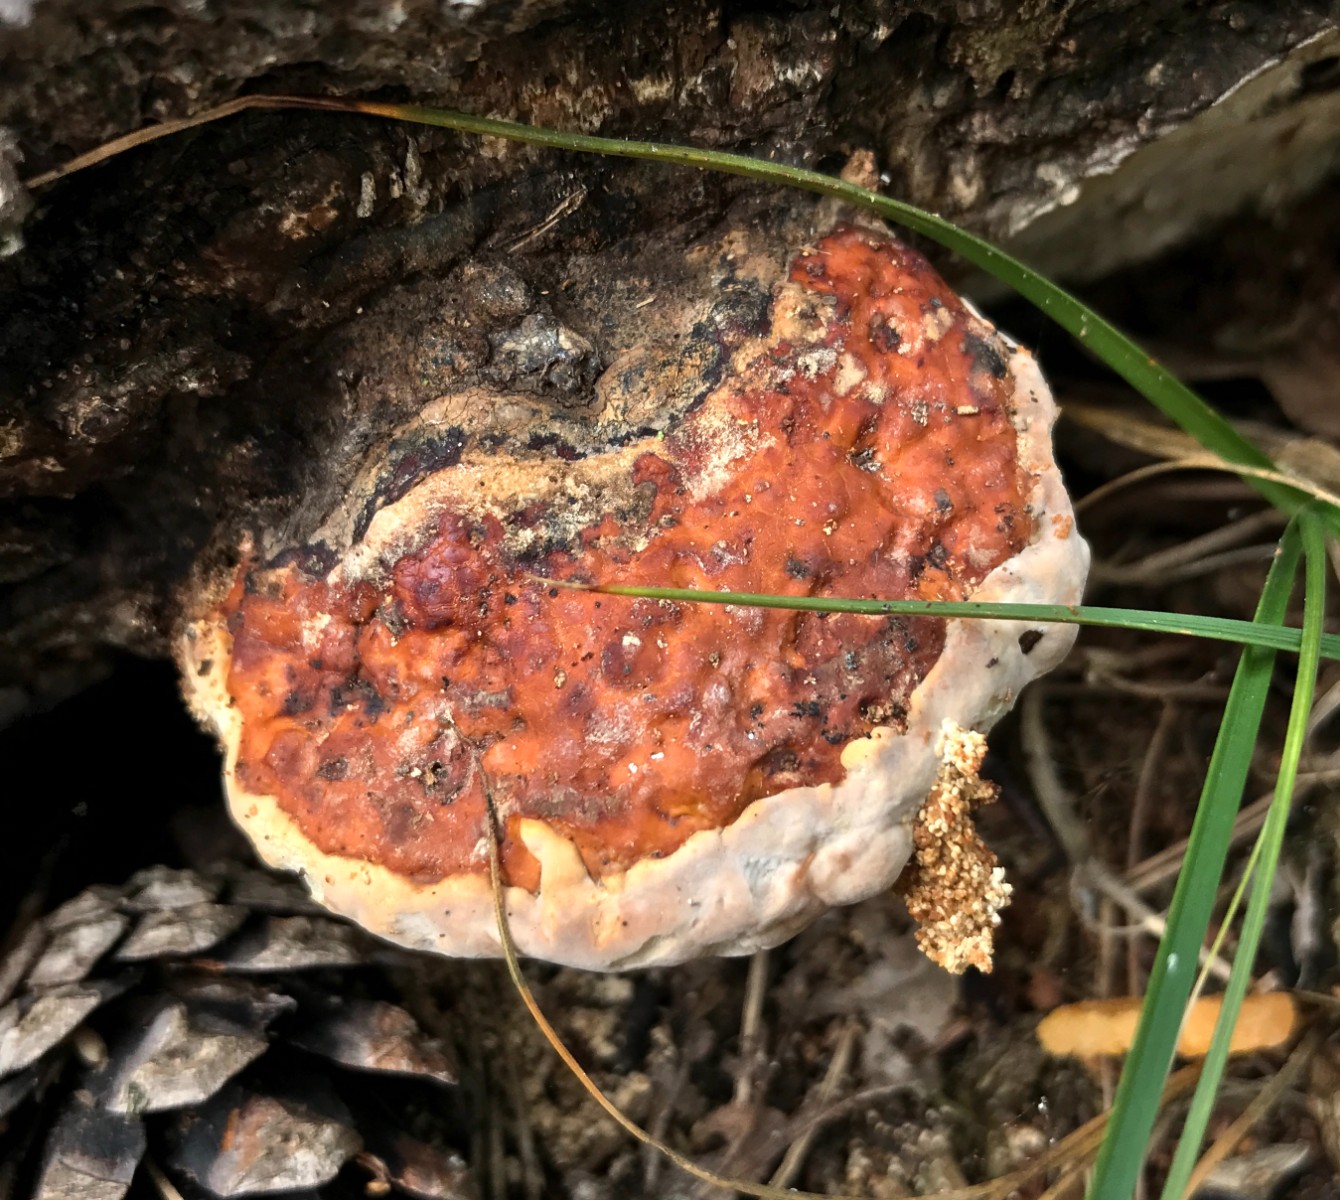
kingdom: Fungi
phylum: Basidiomycota
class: Agaricomycetes
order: Polyporales
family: Fomitopsidaceae
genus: Fomitopsis
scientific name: Fomitopsis pinicola
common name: randbæltet hovporesvamp
